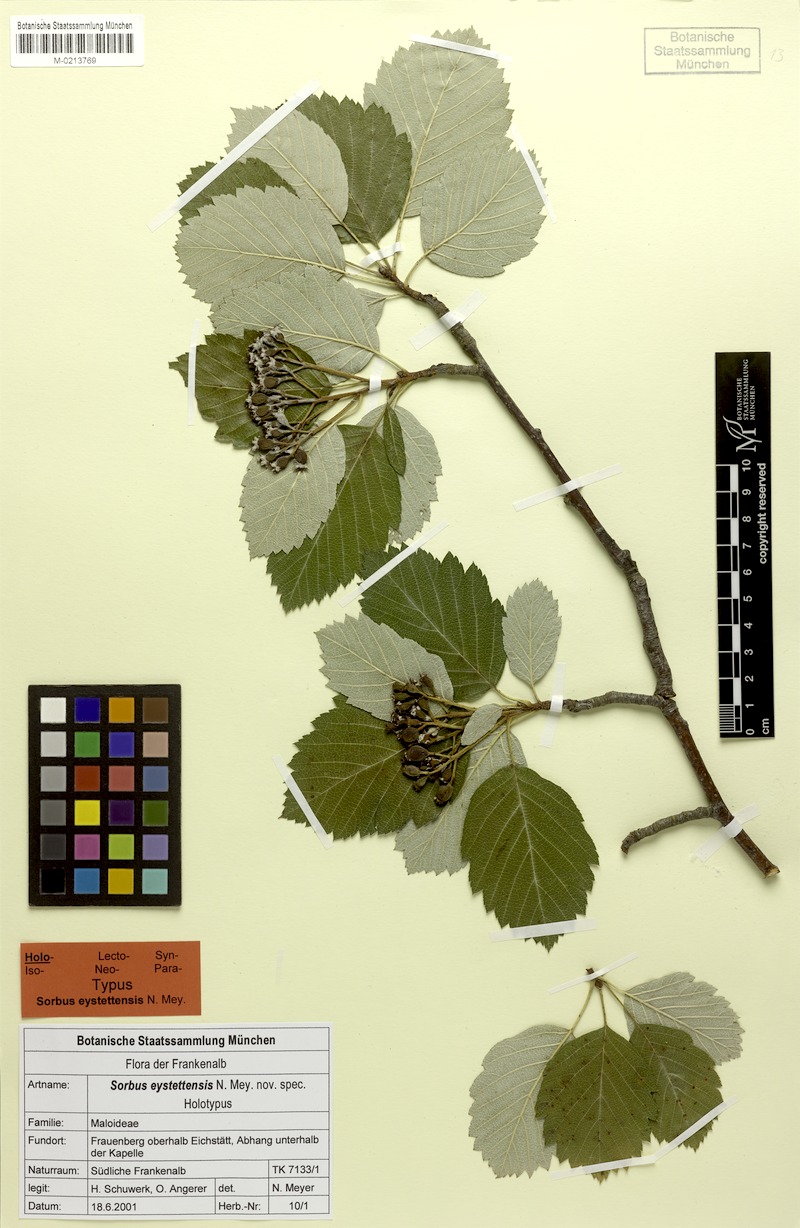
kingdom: Plantae
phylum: Tracheophyta
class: Magnoliopsida
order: Rosales
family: Rosaceae
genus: Karpatiosorbus
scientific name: Karpatiosorbus eystettensis
